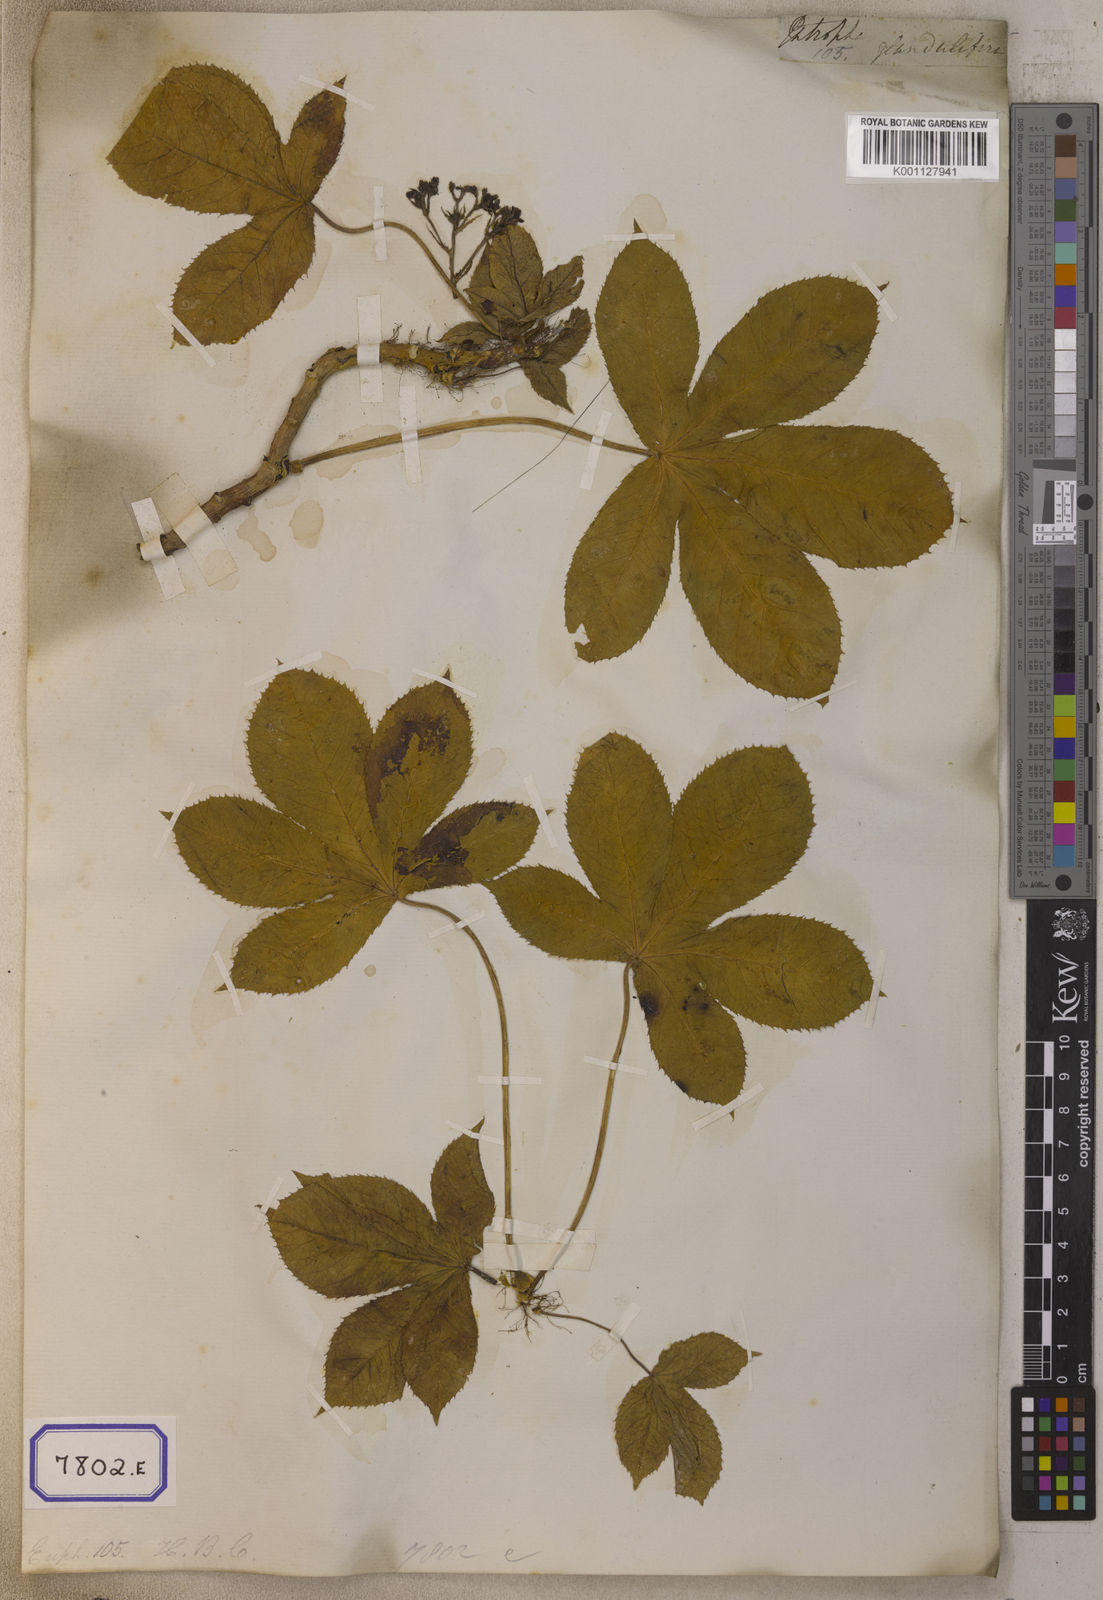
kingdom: Plantae
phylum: Tracheophyta
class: Magnoliopsida
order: Malpighiales
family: Euphorbiaceae
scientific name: Euphorbiaceae
